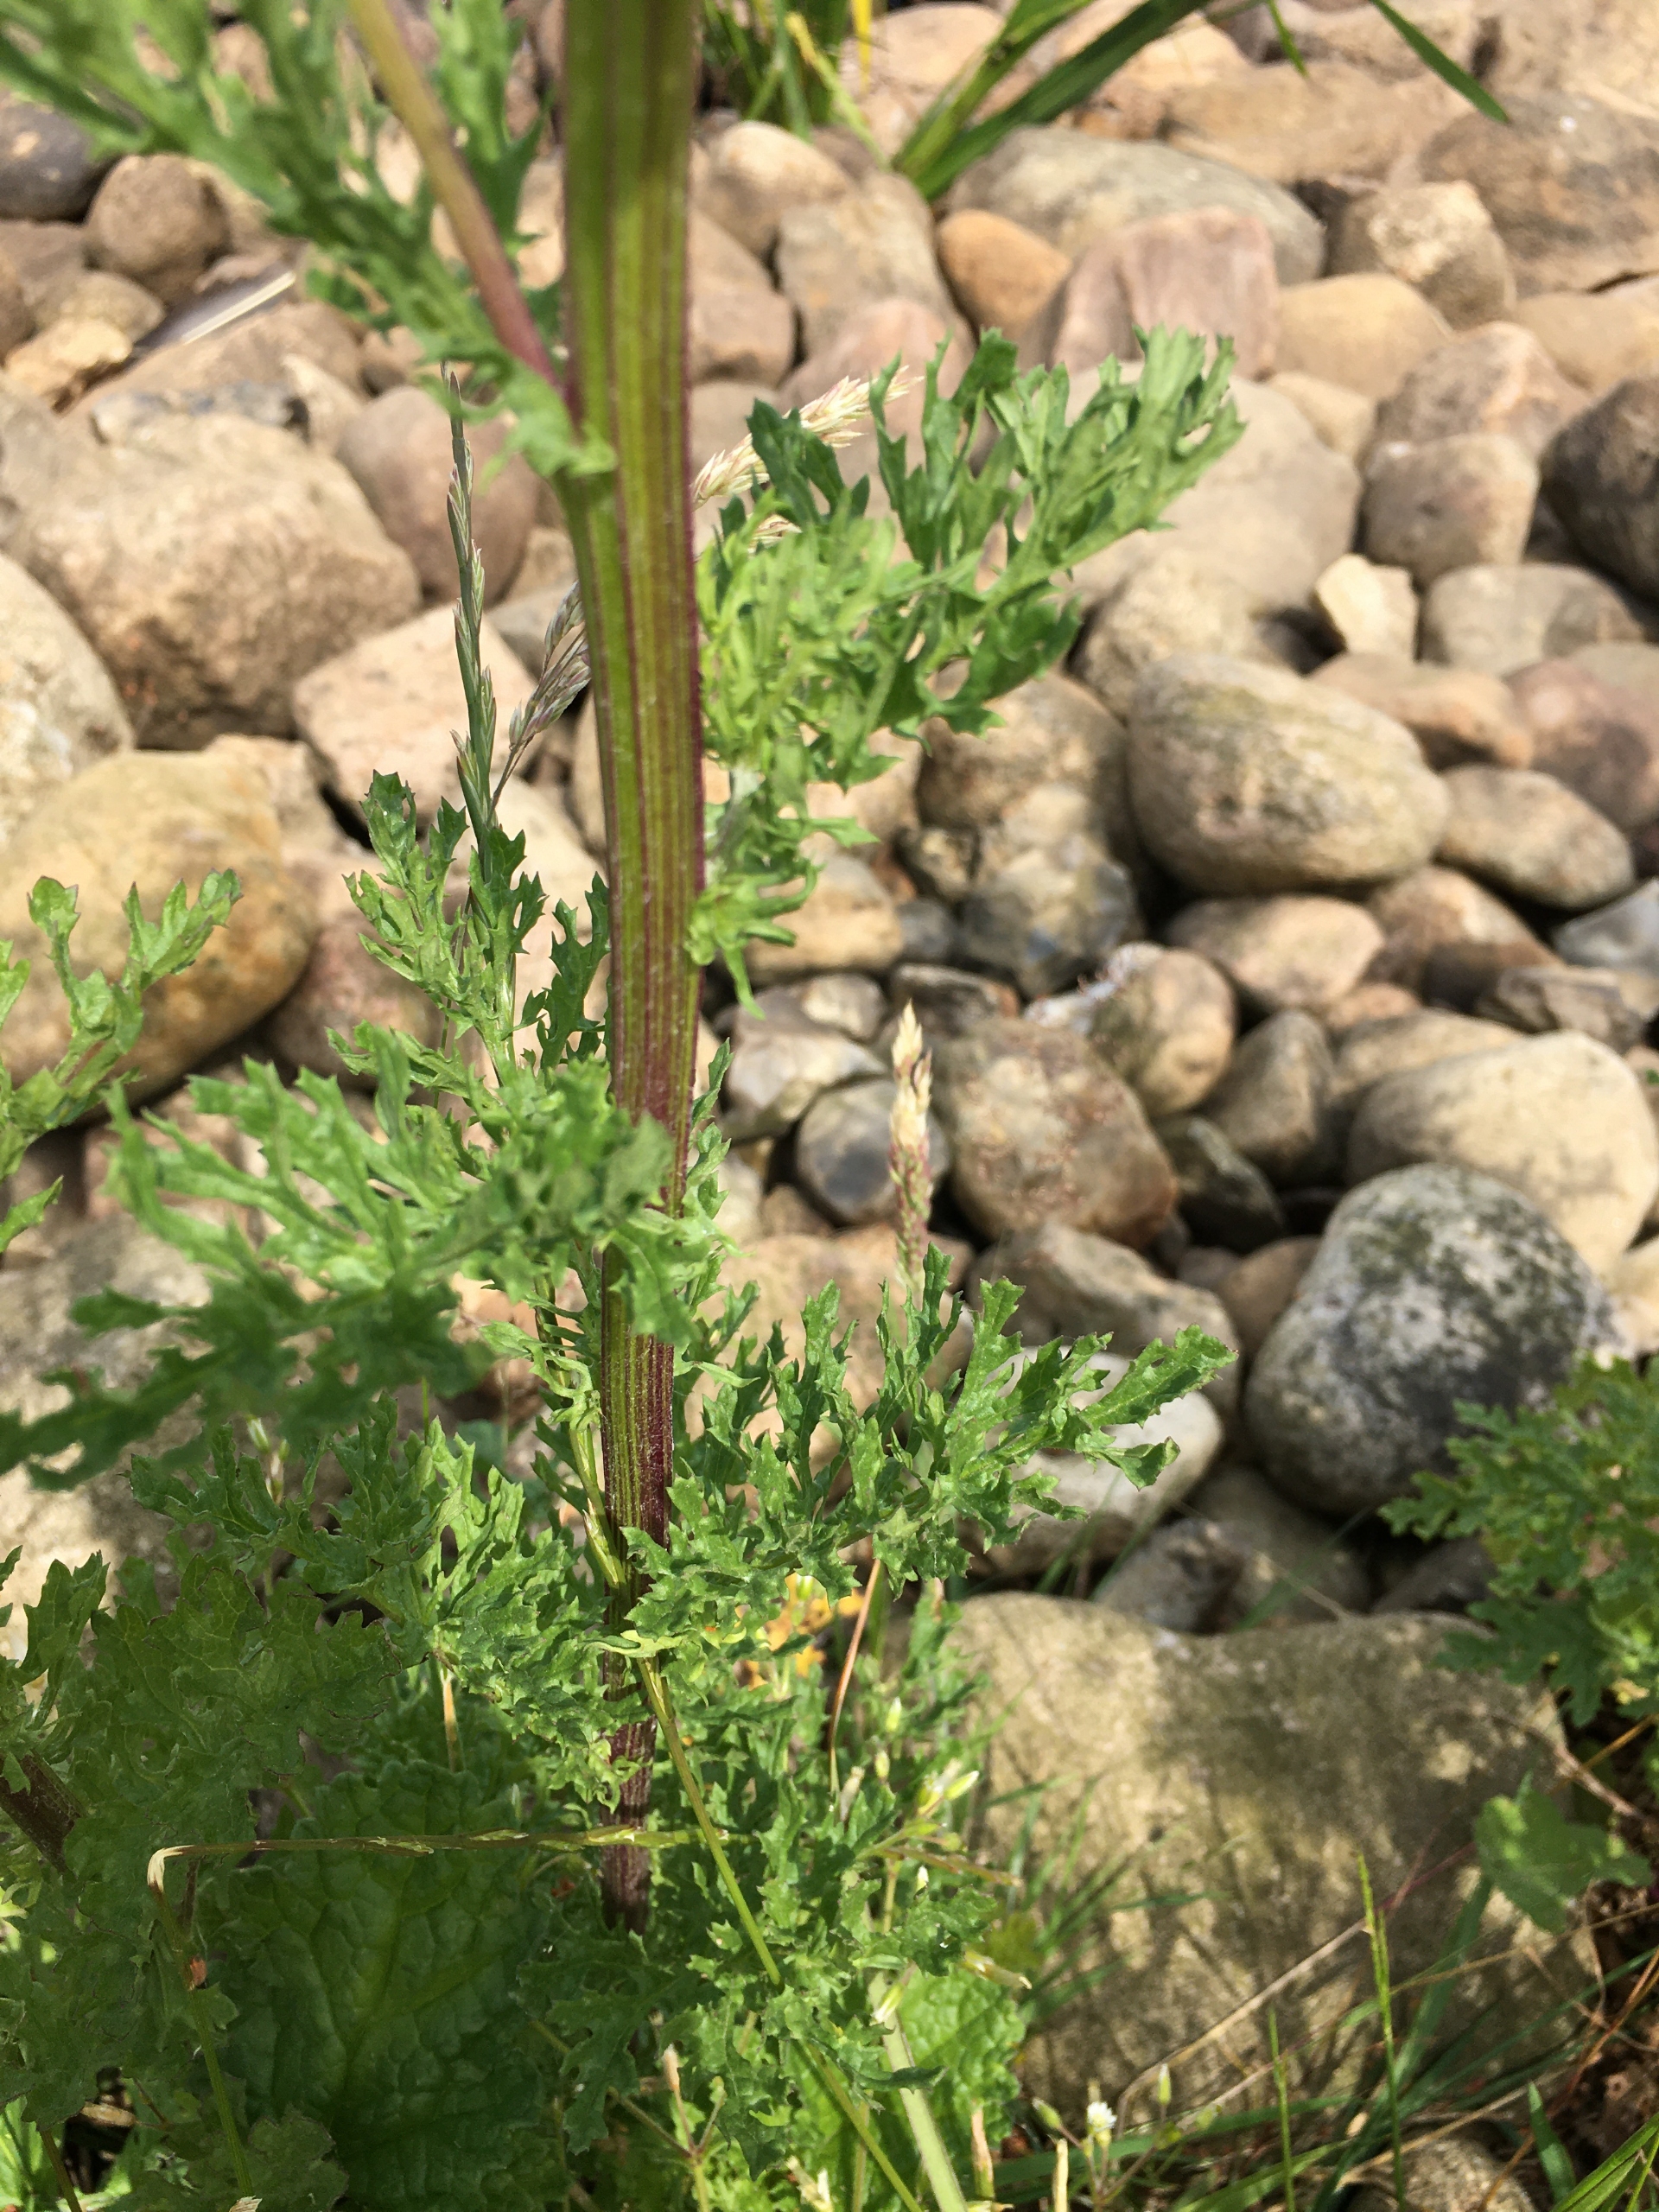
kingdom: Plantae
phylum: Tracheophyta
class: Magnoliopsida
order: Asterales
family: Asteraceae
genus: Jacobaea
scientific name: Jacobaea vulgaris
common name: Eng-brandbæger
